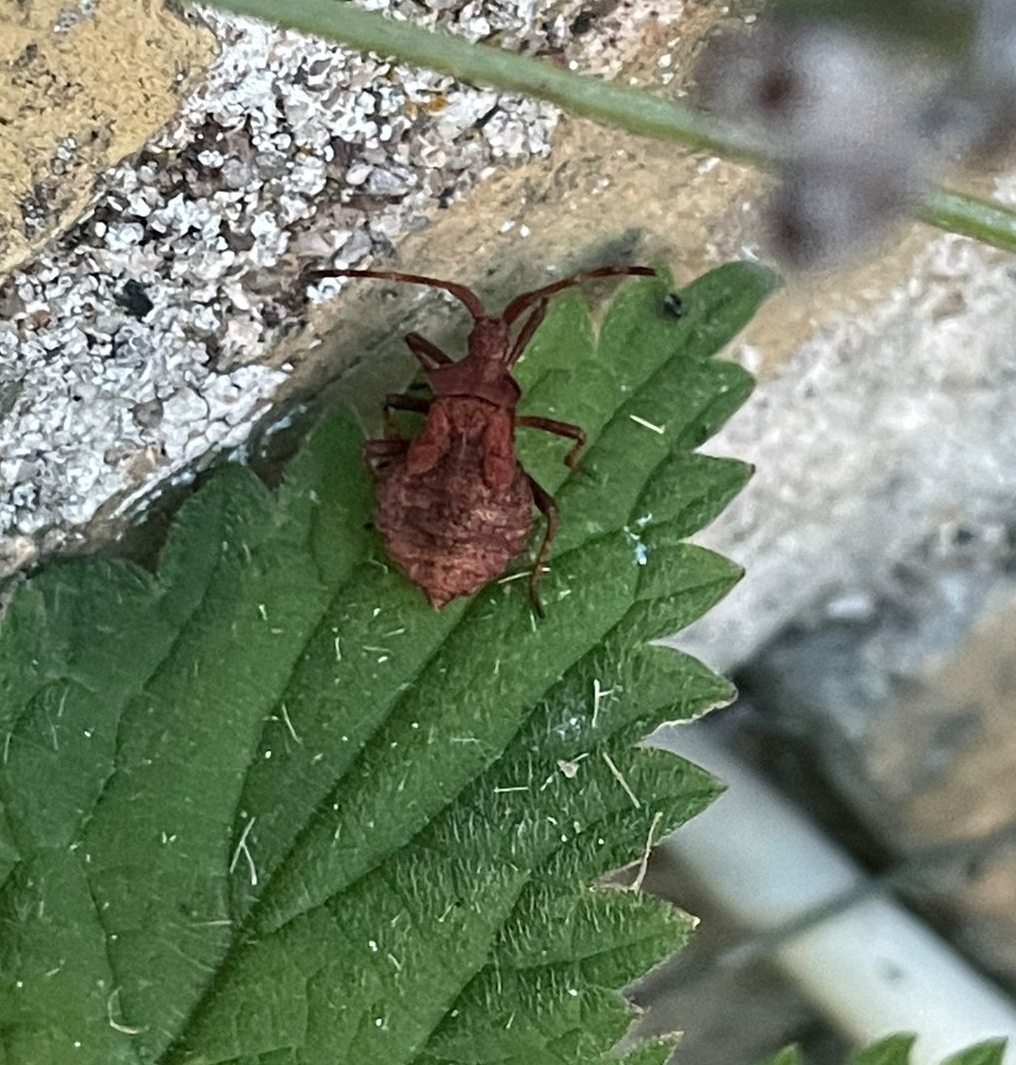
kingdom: Animalia
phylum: Arthropoda
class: Insecta
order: Hemiptera
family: Coreidae
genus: Coreus
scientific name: Coreus marginatus
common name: Skræppetæge
